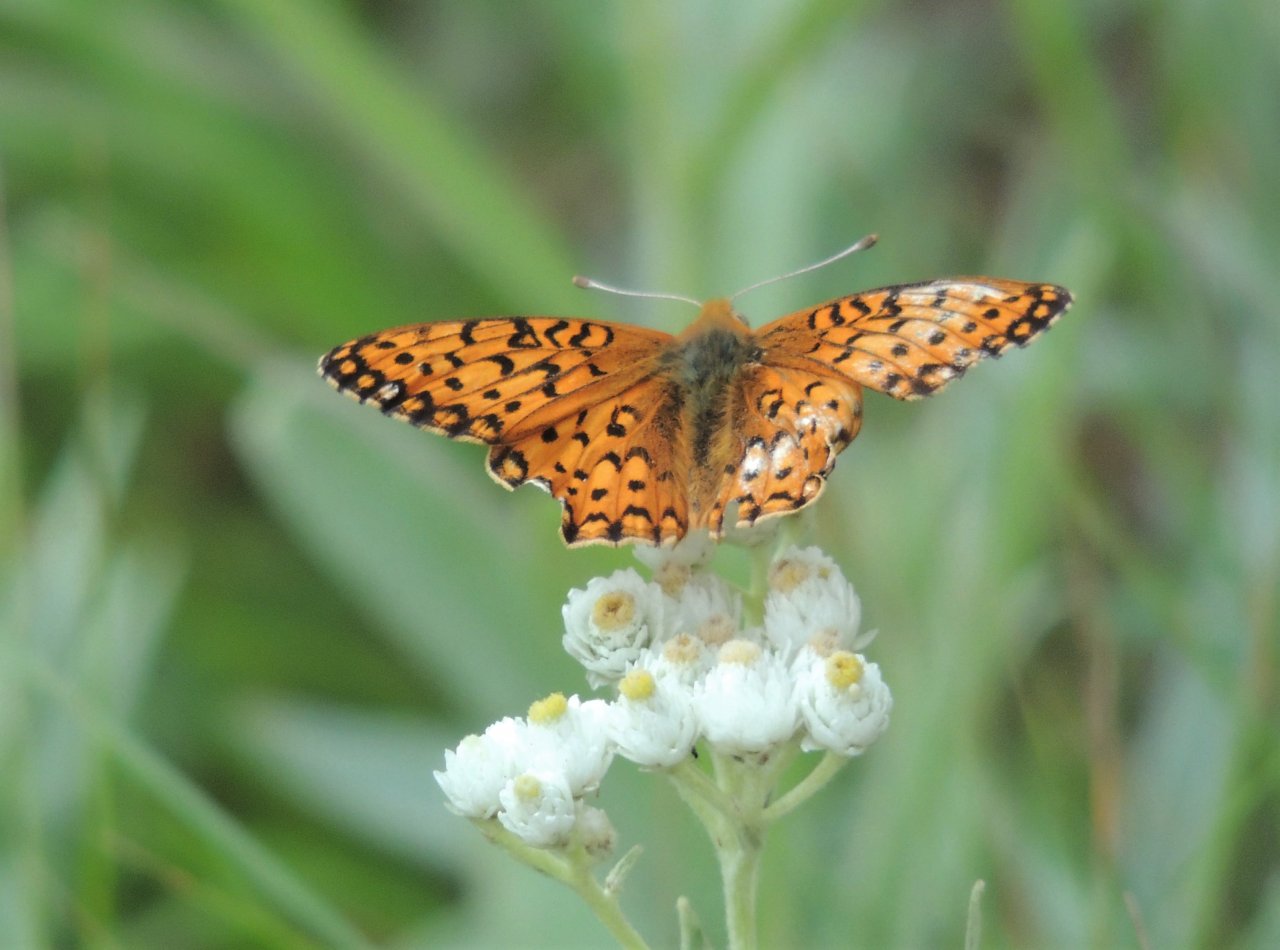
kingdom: Animalia
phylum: Arthropoda
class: Insecta
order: Lepidoptera
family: Nymphalidae
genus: Speyeria
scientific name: Speyeria mormonia
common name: Mormon Fritillary
